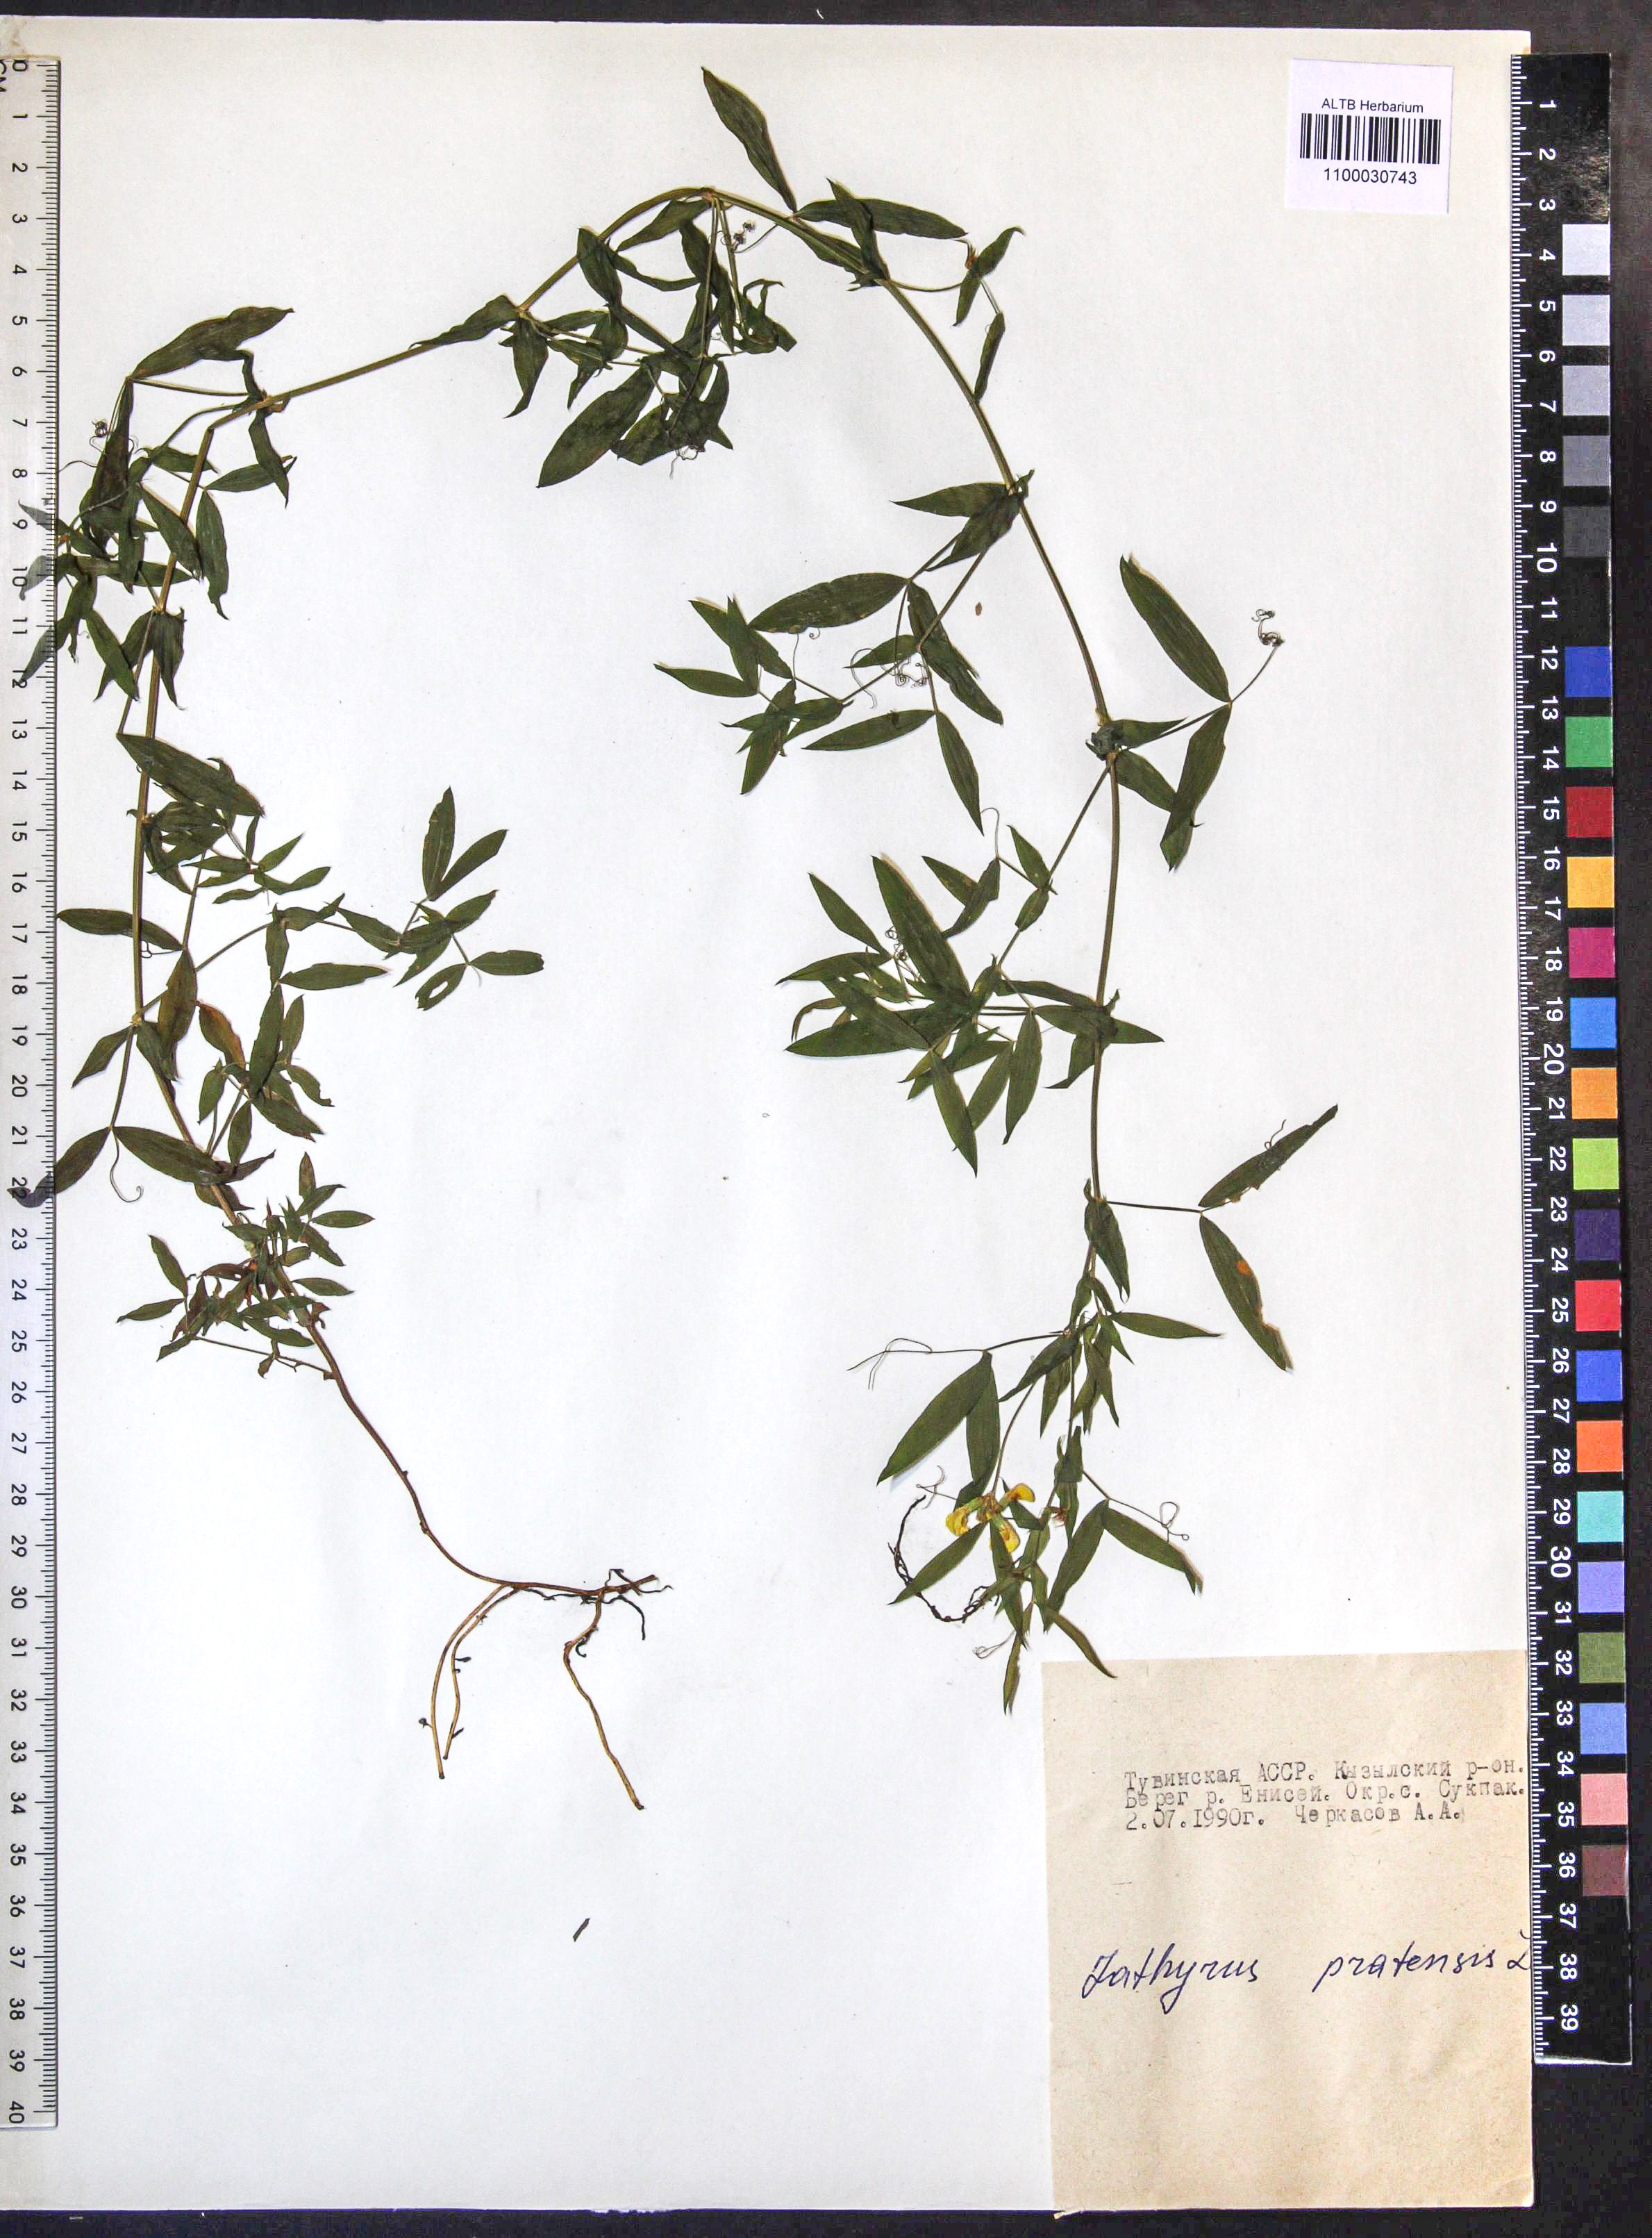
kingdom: Plantae
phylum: Tracheophyta
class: Magnoliopsida
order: Fabales
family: Fabaceae
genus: Lathyrus
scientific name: Lathyrus pratensis
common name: Meadow vetchling
